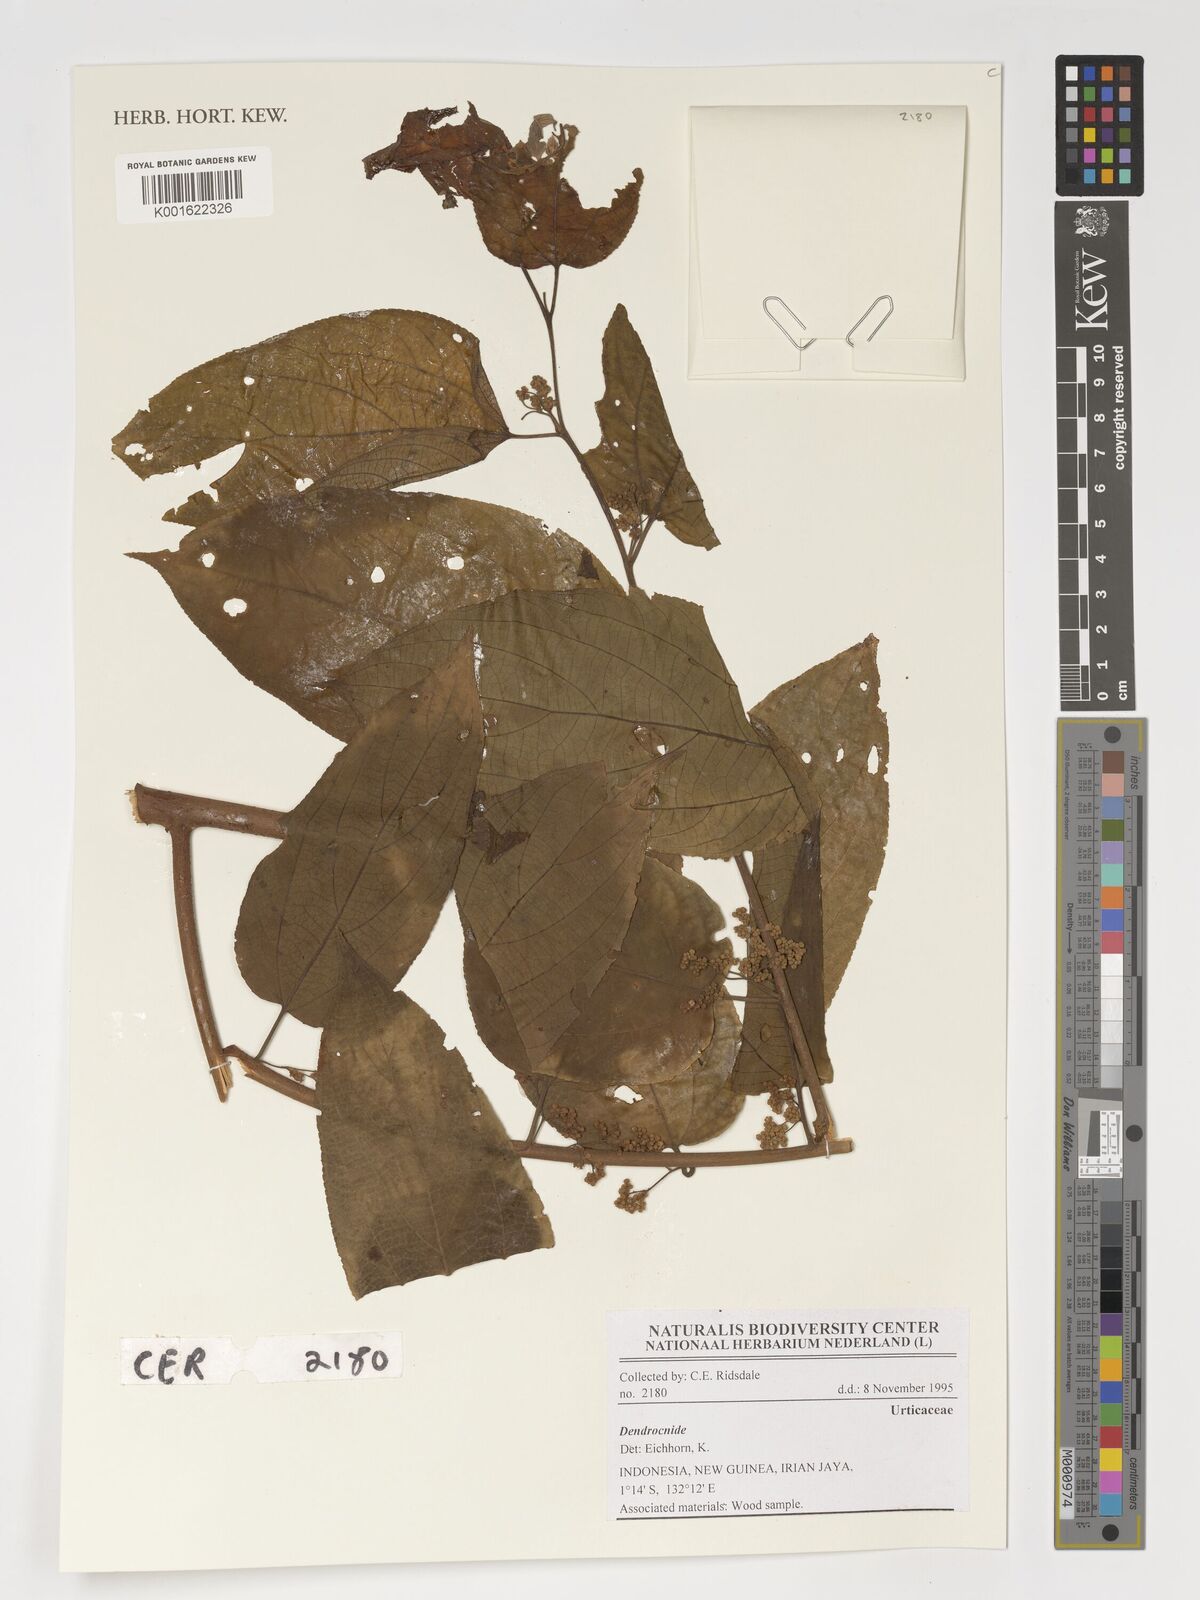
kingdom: Plantae
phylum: Tracheophyta
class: Magnoliopsida
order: Rosales
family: Urticaceae
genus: Dendrocnide
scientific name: Dendrocnide
